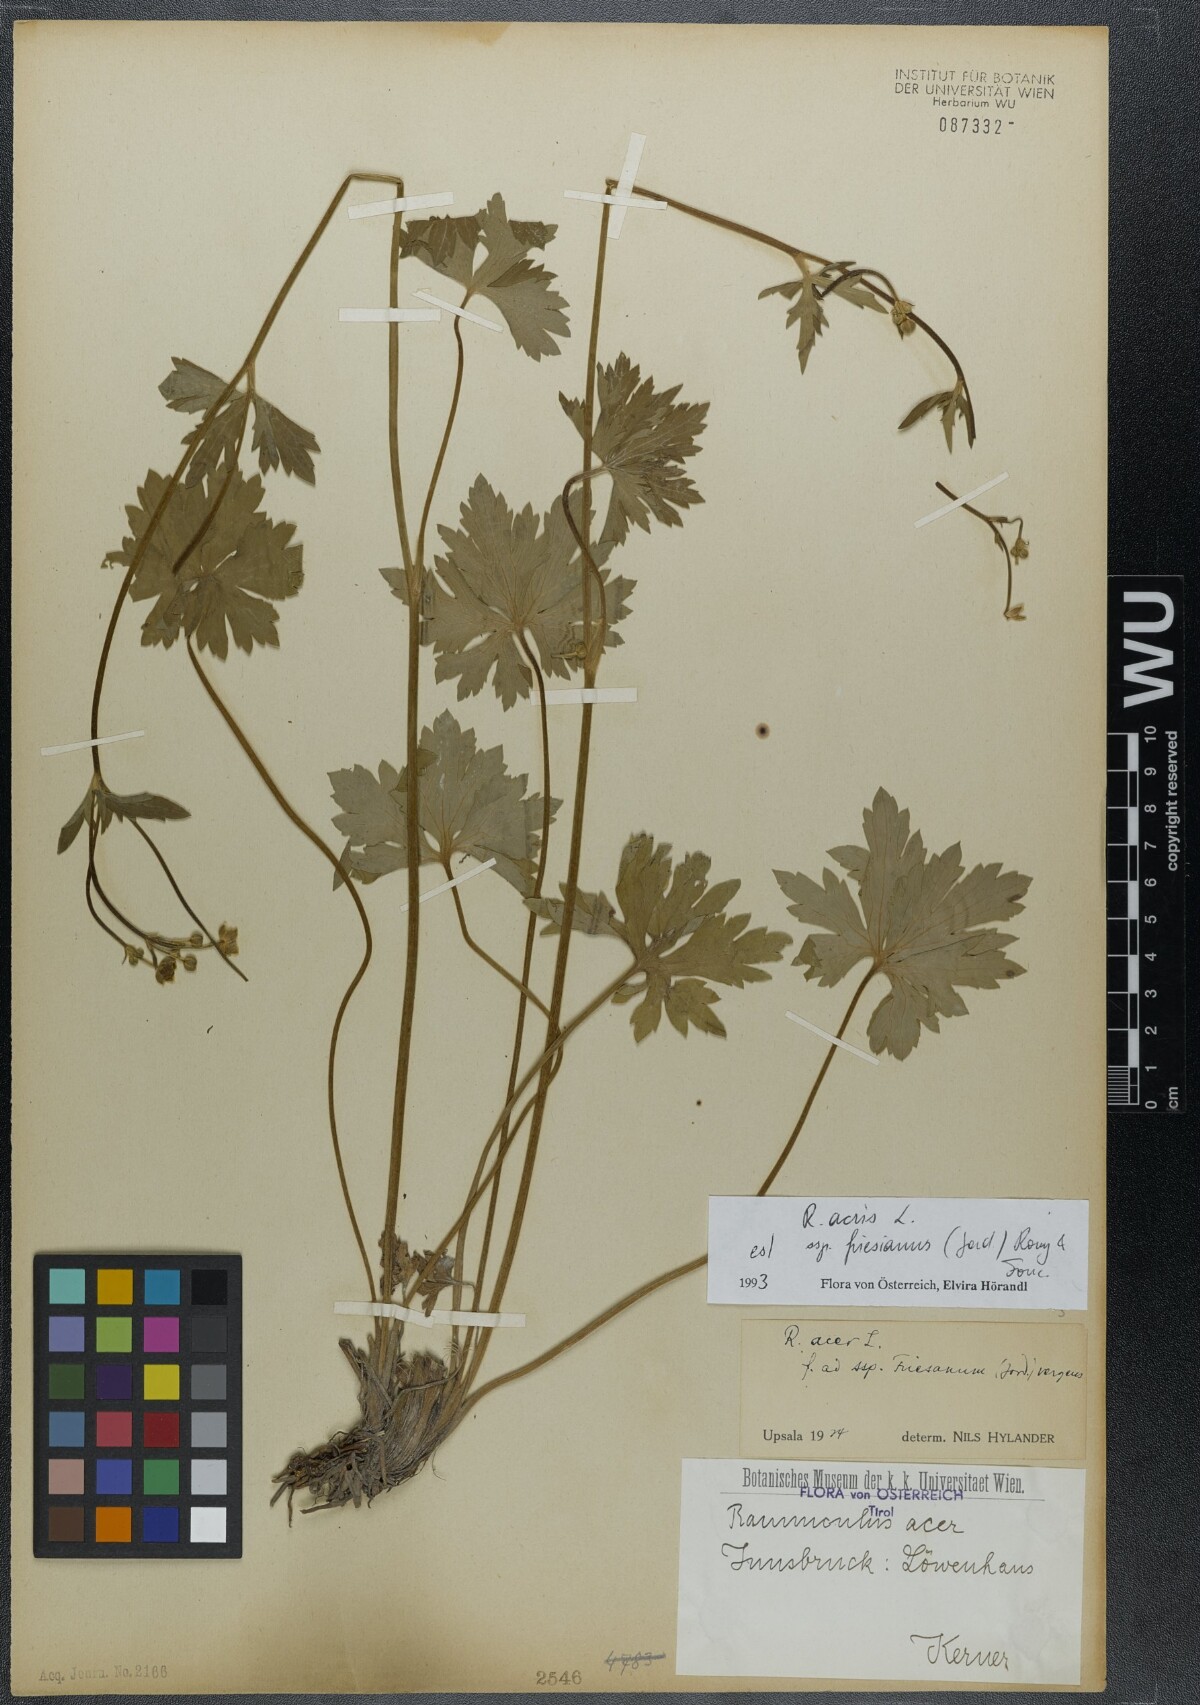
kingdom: Plantae
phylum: Tracheophyta
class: Magnoliopsida
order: Ranunculales
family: Ranunculaceae
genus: Ranunculus
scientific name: Ranunculus acris
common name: Meadow buttercup
